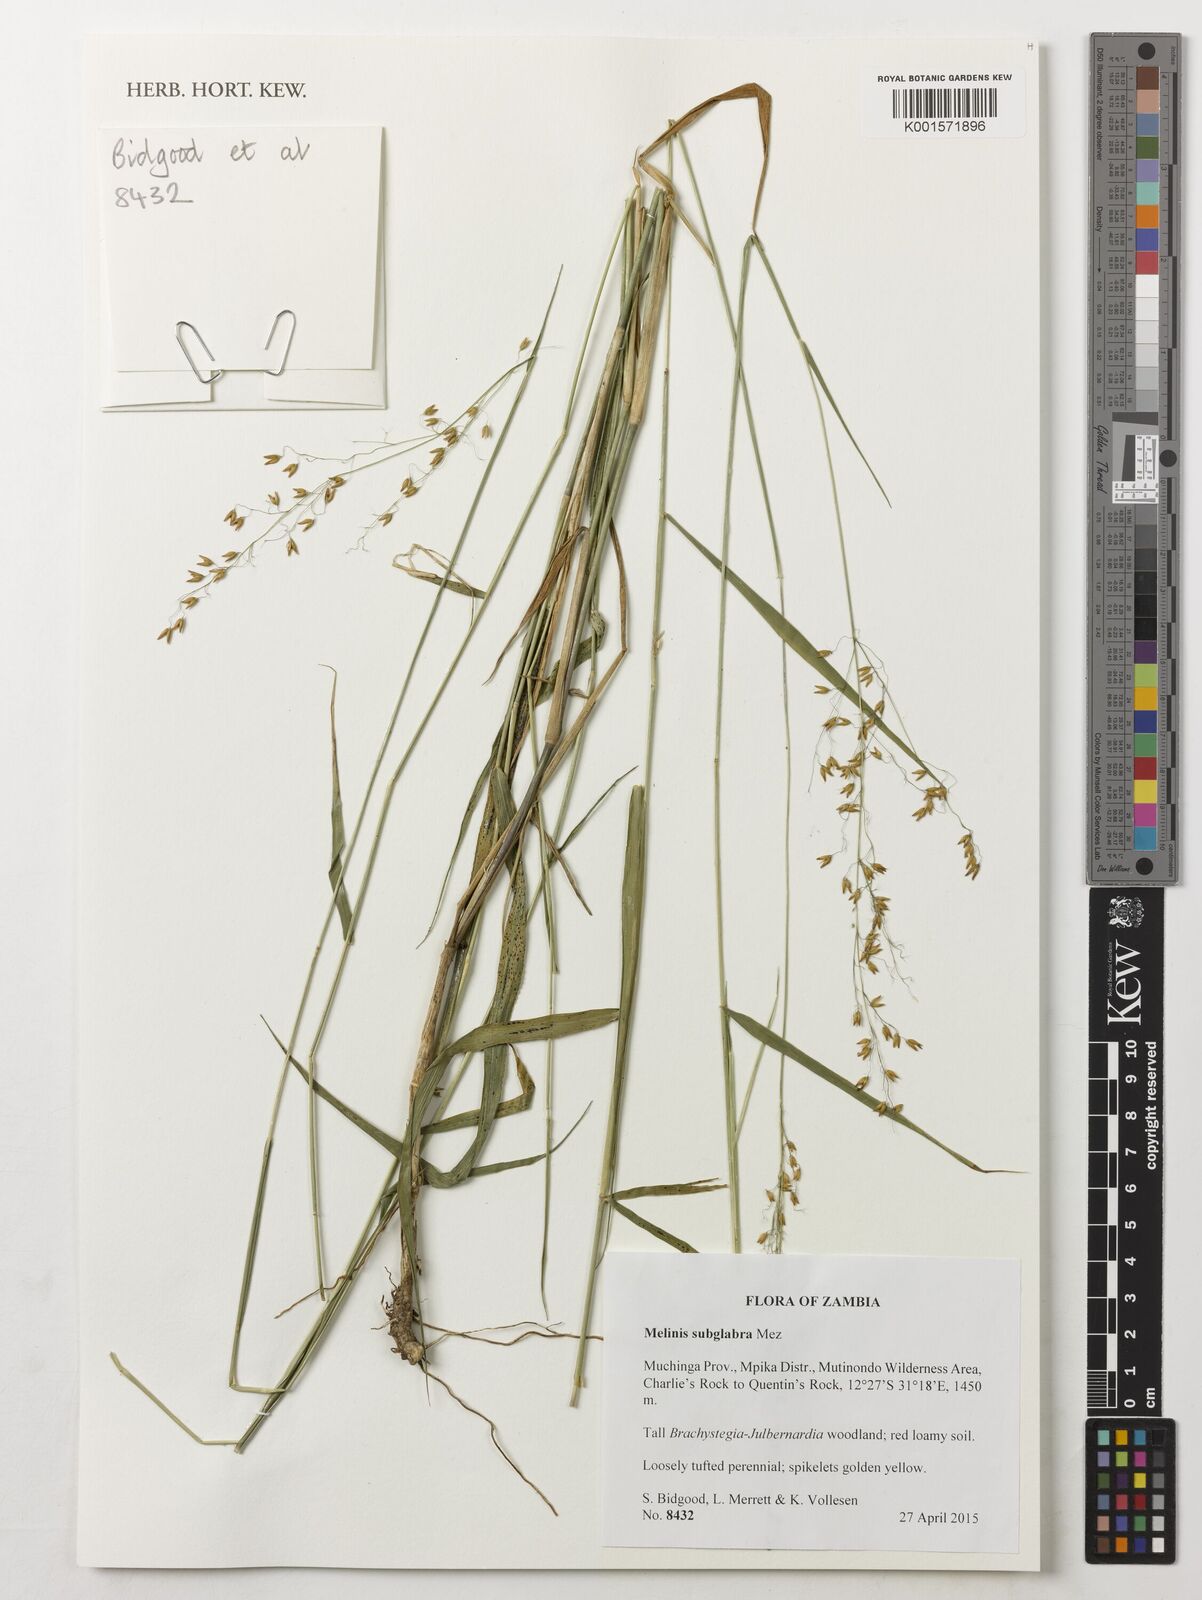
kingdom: Plantae
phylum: Tracheophyta
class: Liliopsida
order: Poales
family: Poaceae
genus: Melinis
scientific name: Melinis subglabra
